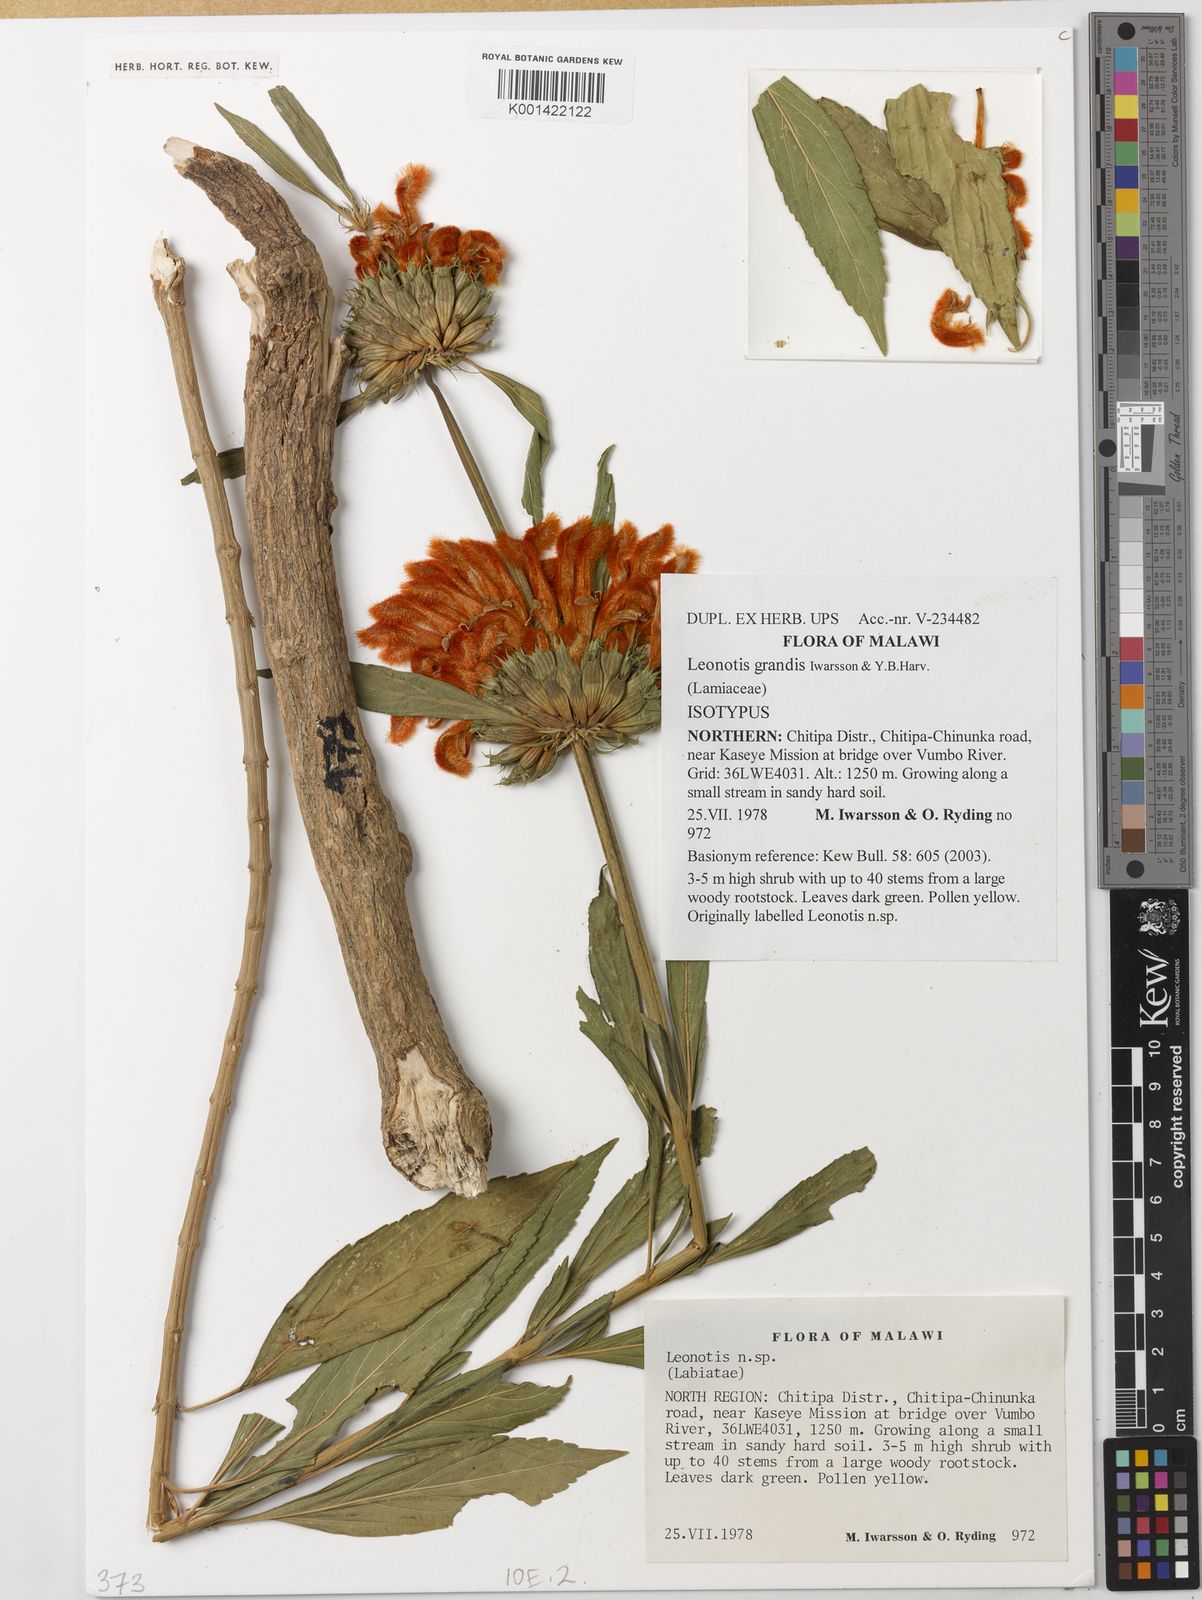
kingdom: Plantae
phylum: Tracheophyta
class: Magnoliopsida
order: Lamiales
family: Lamiaceae
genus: Leonotis
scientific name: Leonotis grandis
